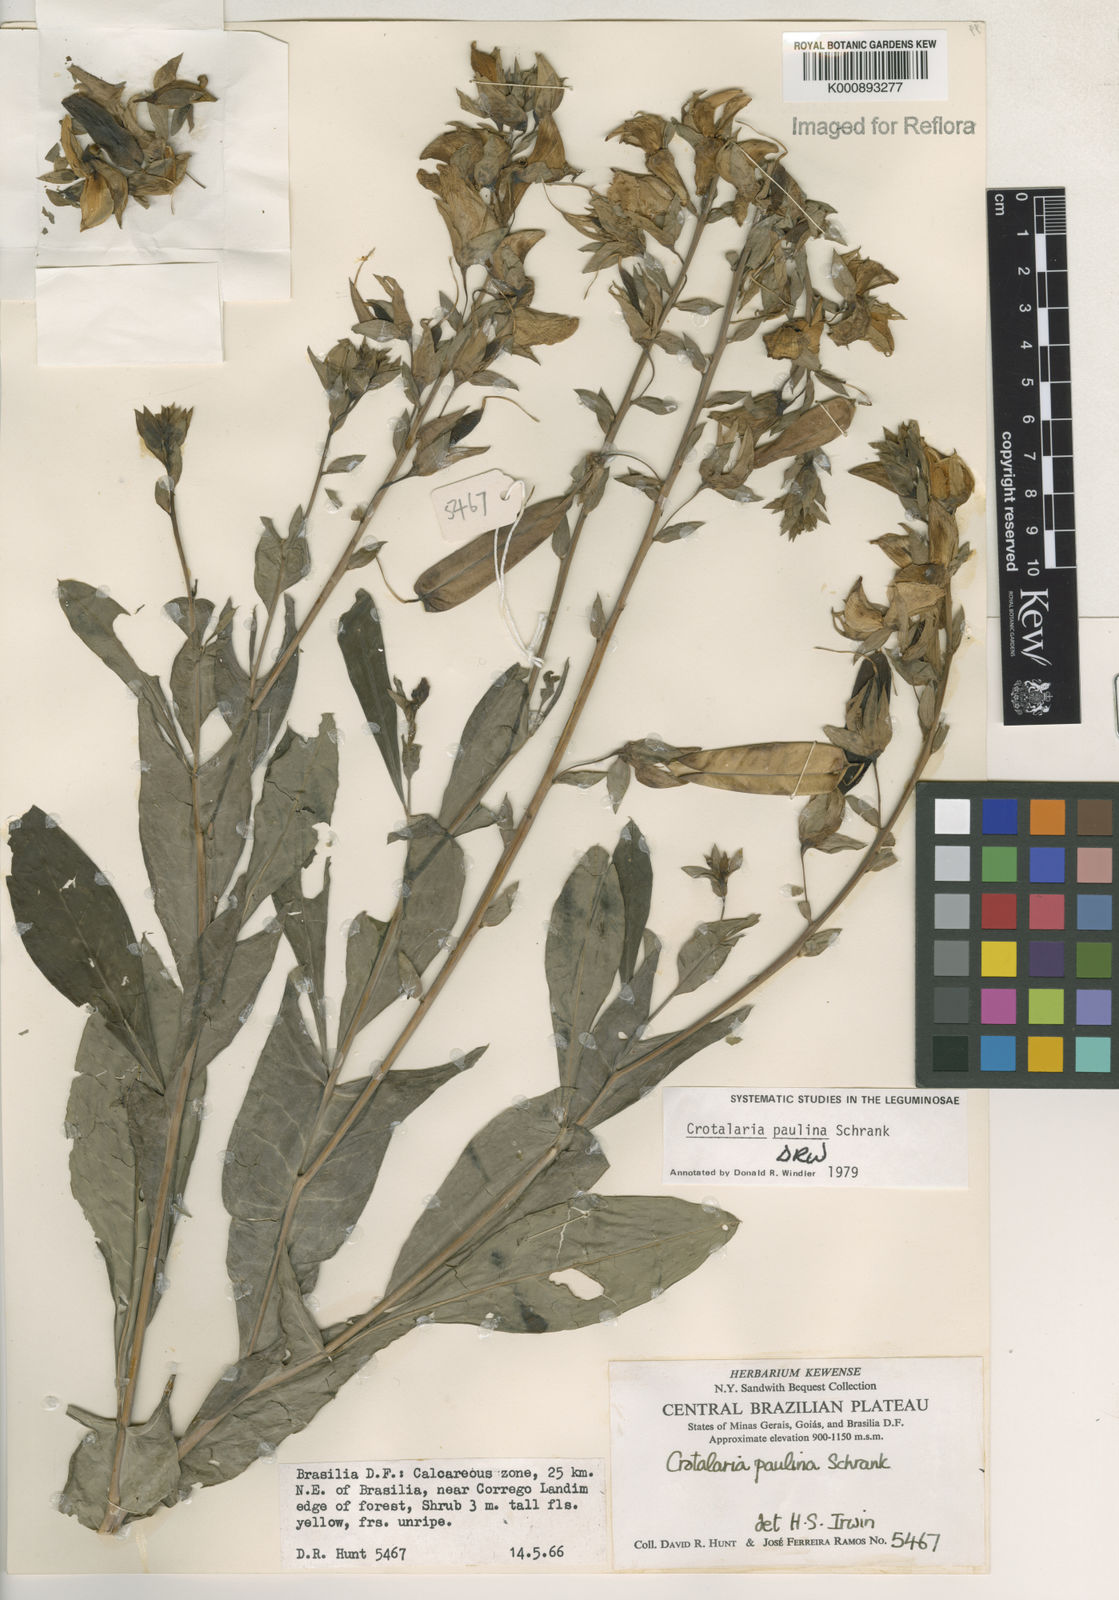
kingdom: Plantae
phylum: Tracheophyta
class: Magnoliopsida
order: Fabales
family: Fabaceae
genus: Crotalaria
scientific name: Crotalaria paulina
